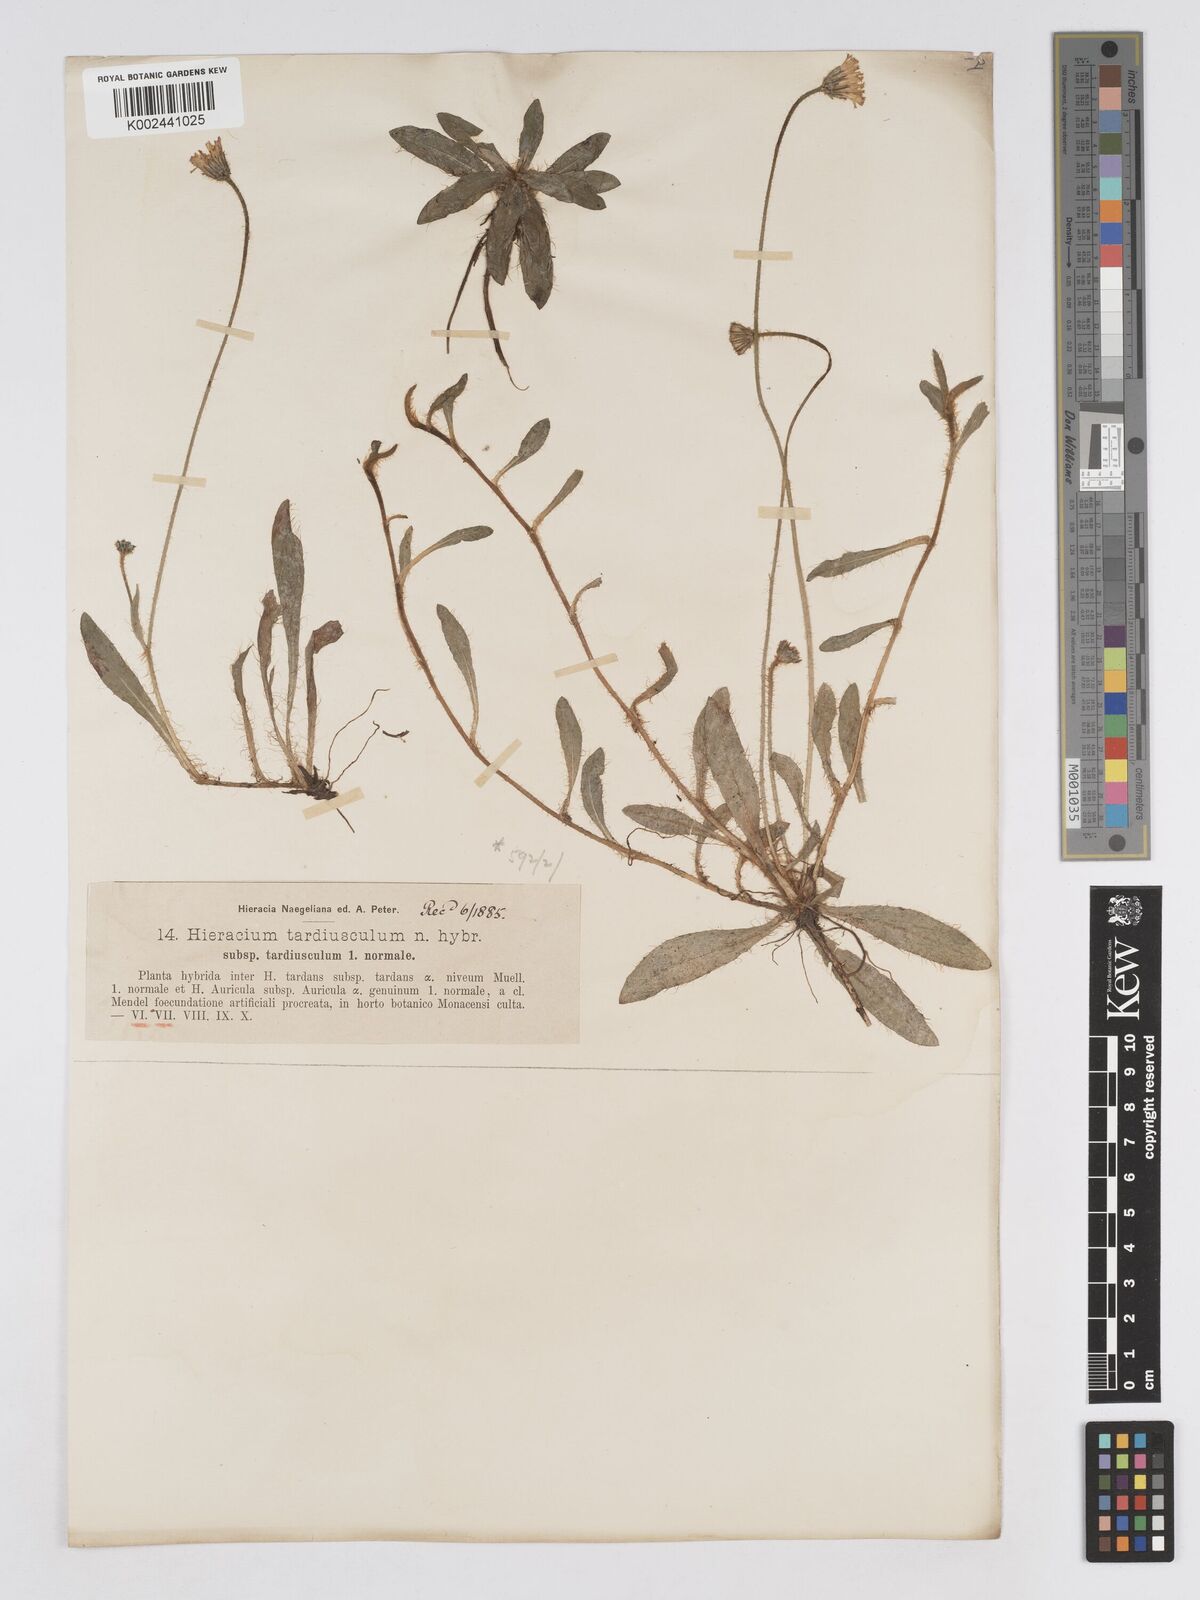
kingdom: Plantae
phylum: Tracheophyta
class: Magnoliopsida
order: Asterales
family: Asteraceae
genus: Pilosella
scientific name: Pilosella schultesii
